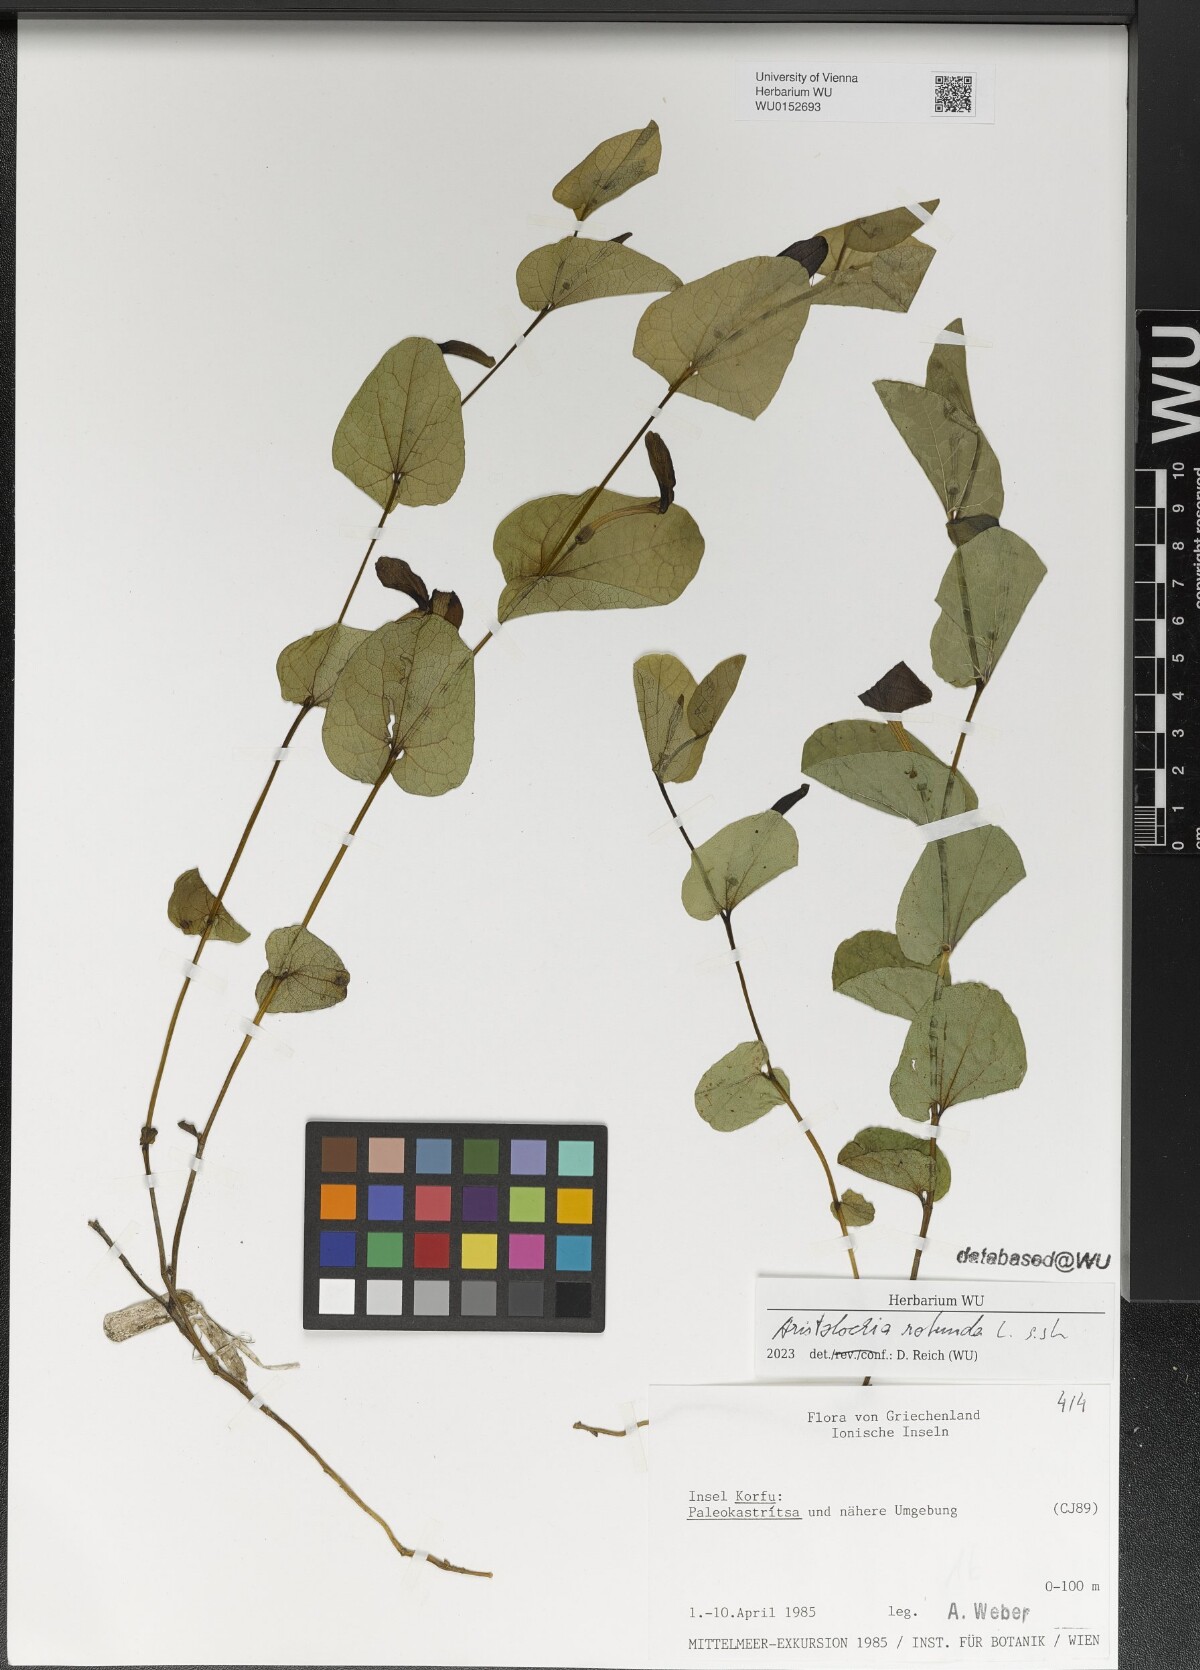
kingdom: Plantae
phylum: Tracheophyta
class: Magnoliopsida
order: Piperales
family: Aristolochiaceae
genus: Aristolochia
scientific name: Aristolochia rotunda
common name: Smearwort
